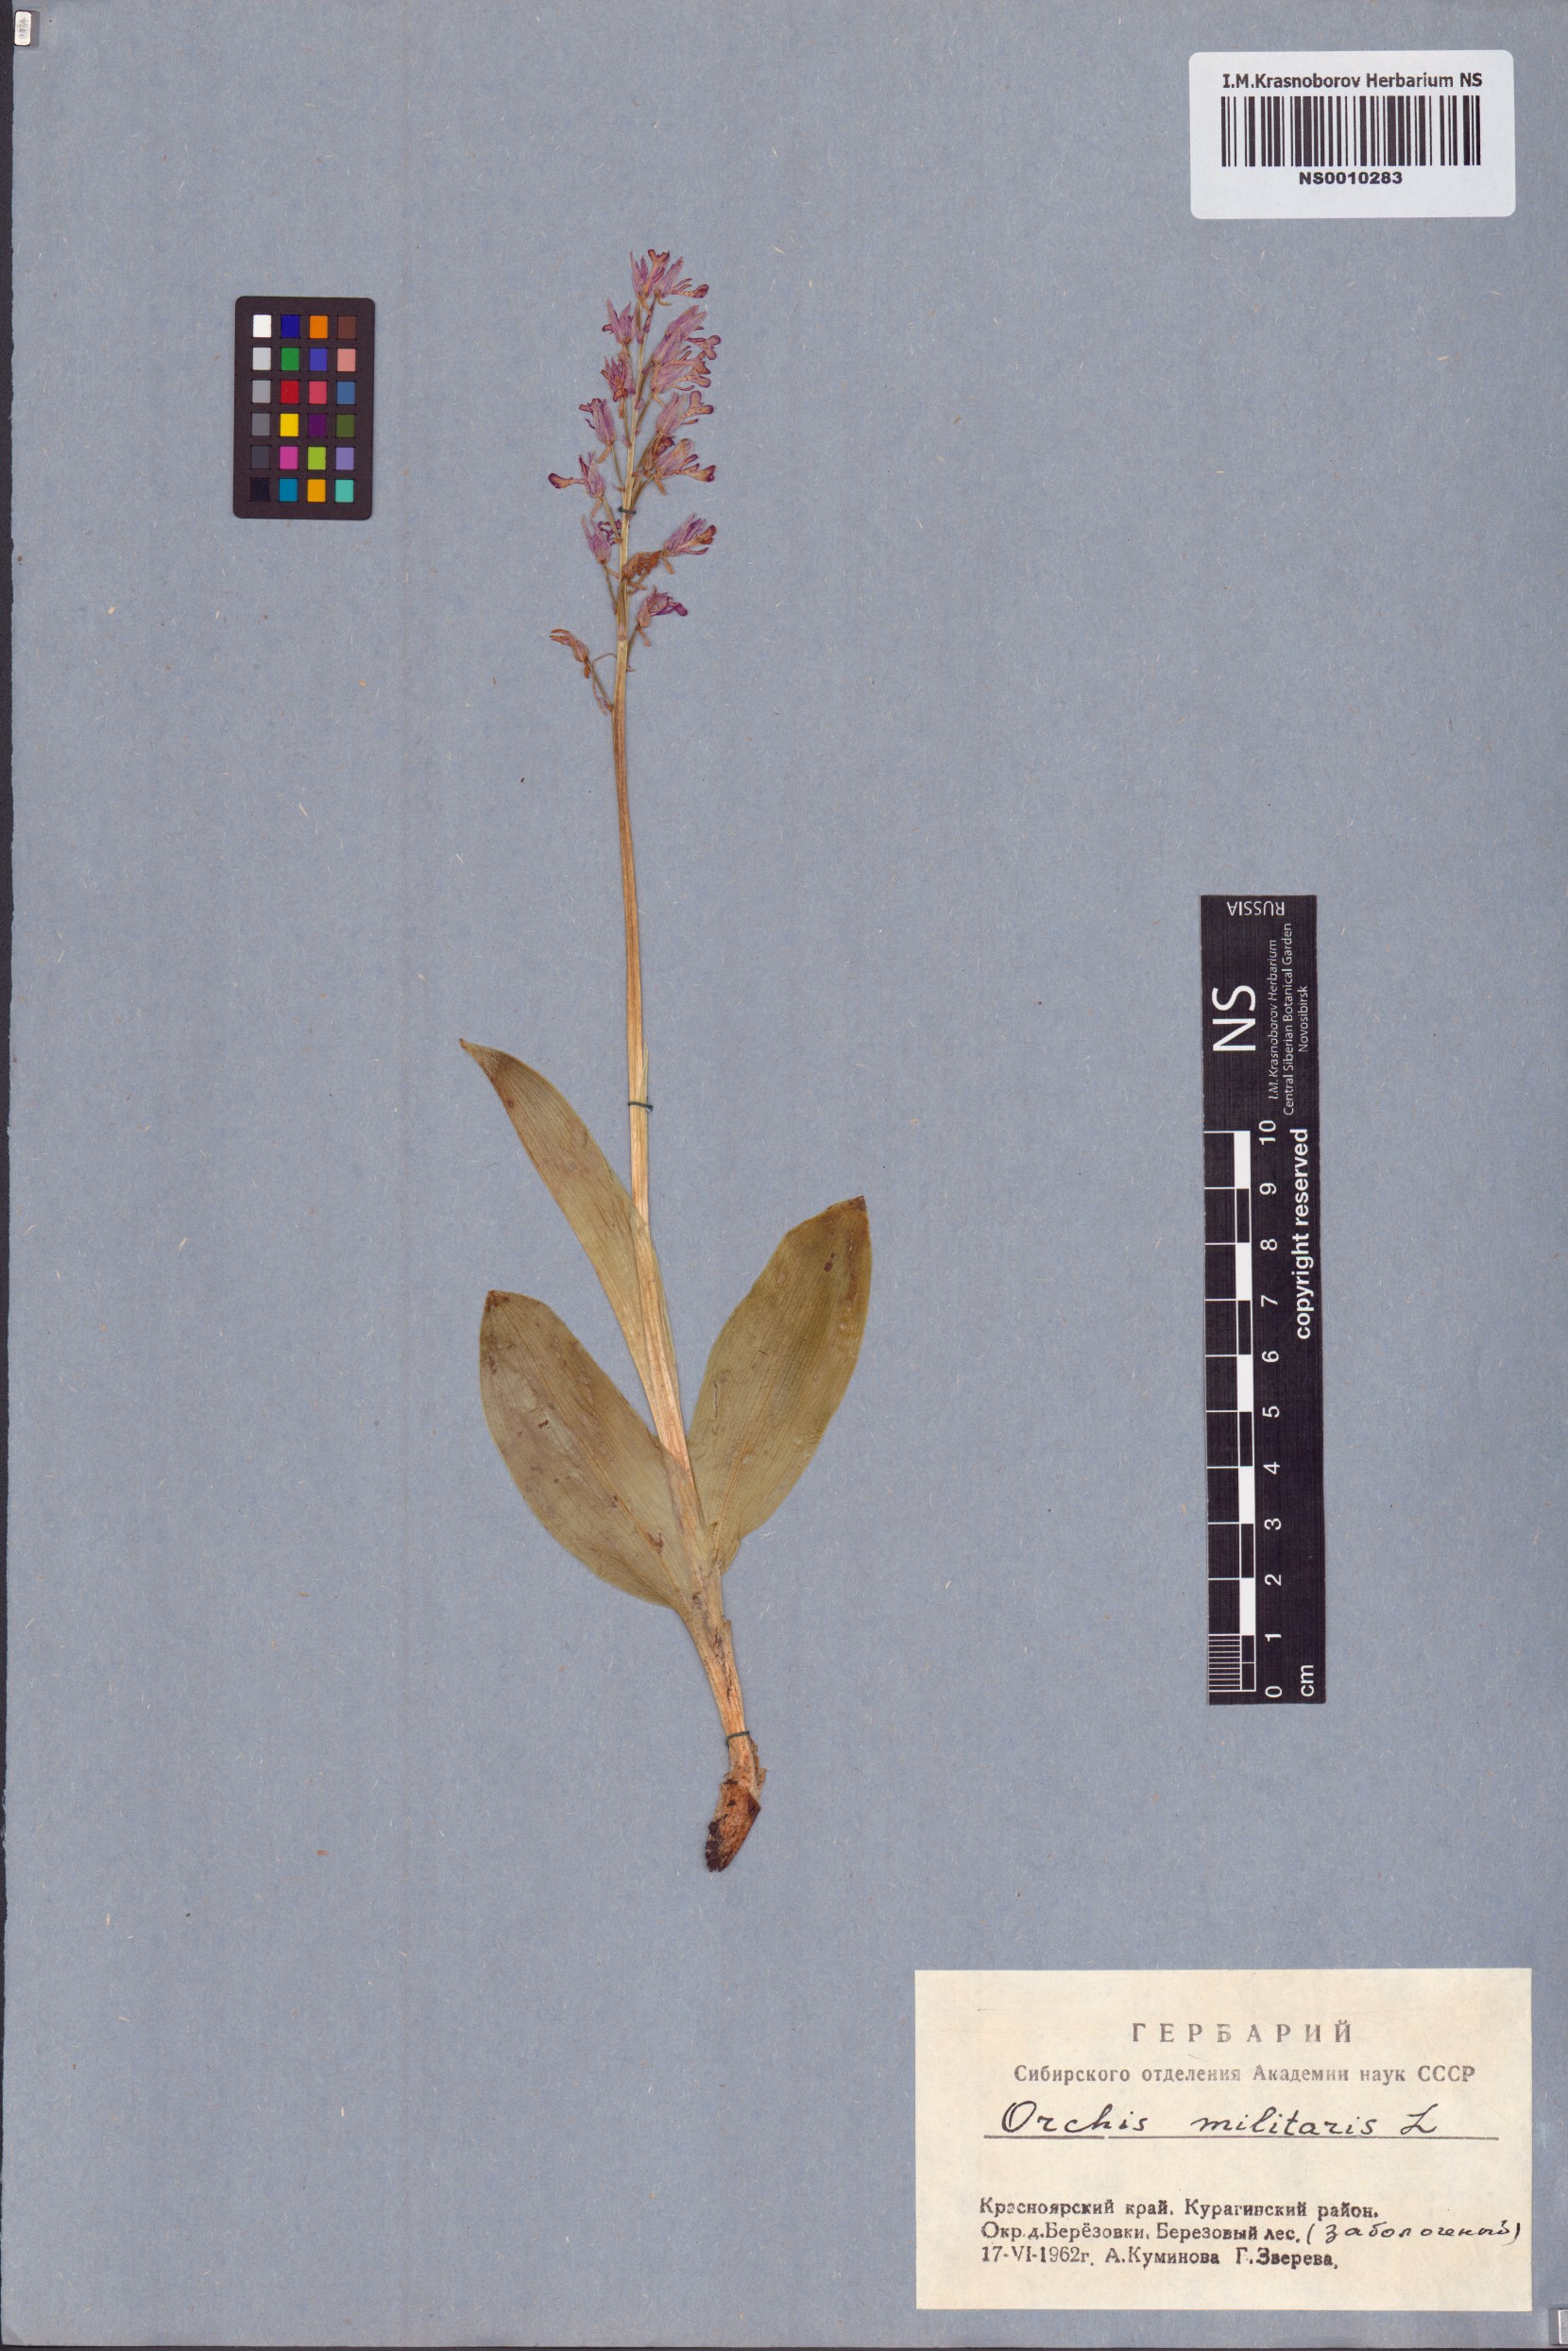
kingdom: Plantae
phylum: Tracheophyta
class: Liliopsida
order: Asparagales
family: Orchidaceae
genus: Orchis
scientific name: Orchis militaris
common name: Military orchid
